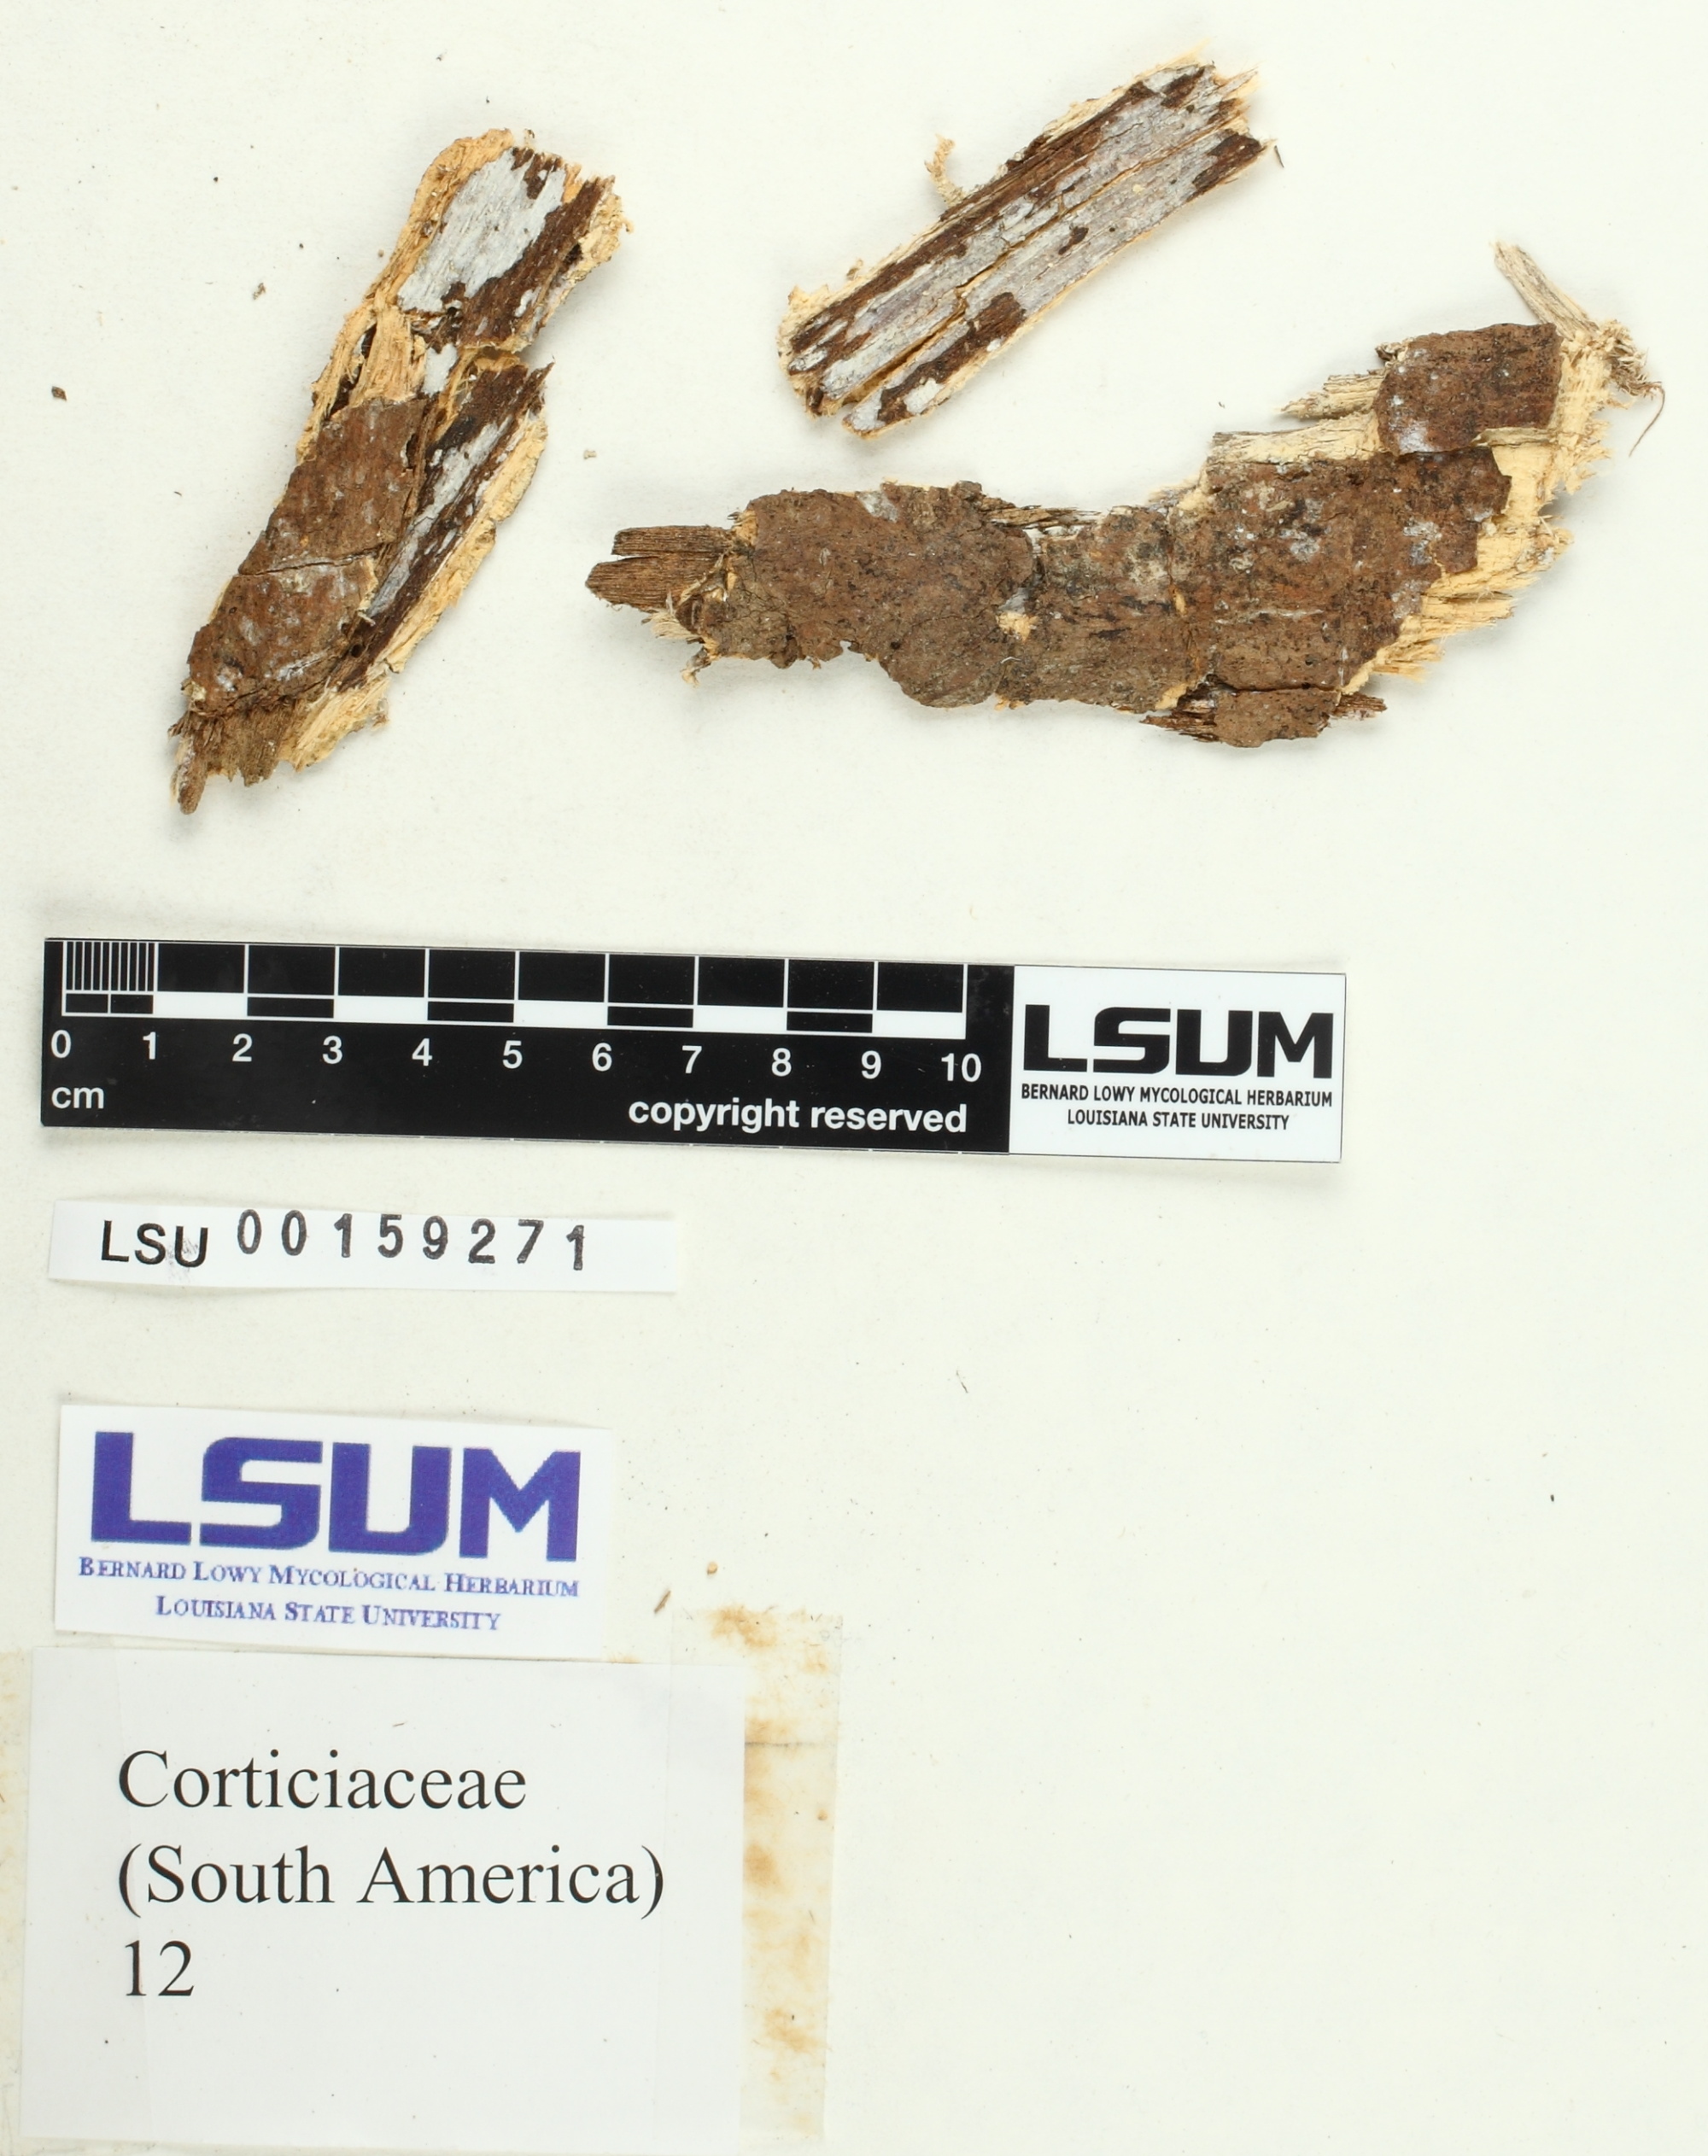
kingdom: Fungi
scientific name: Fungi
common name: Fungi
